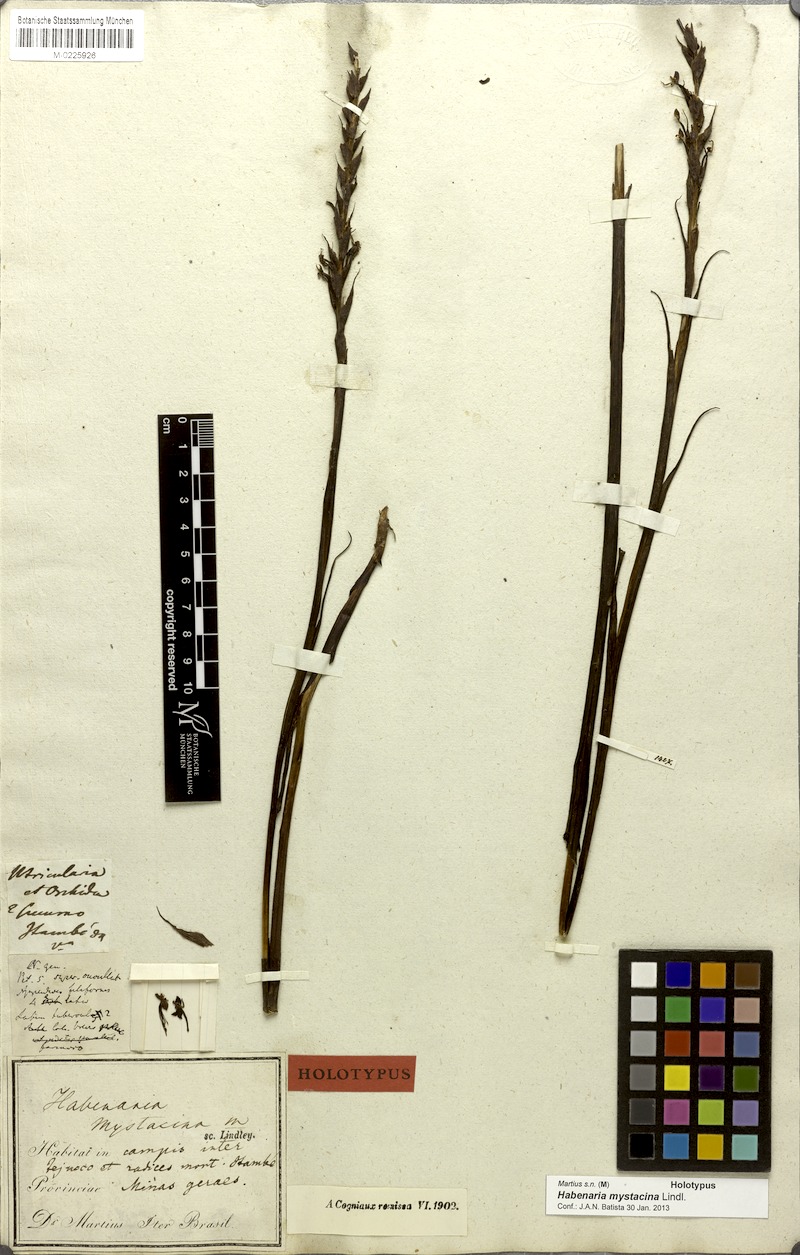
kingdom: Plantae
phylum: Tracheophyta
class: Liliopsida
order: Asparagales
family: Orchidaceae
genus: Habenaria
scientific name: Habenaria mystacina
